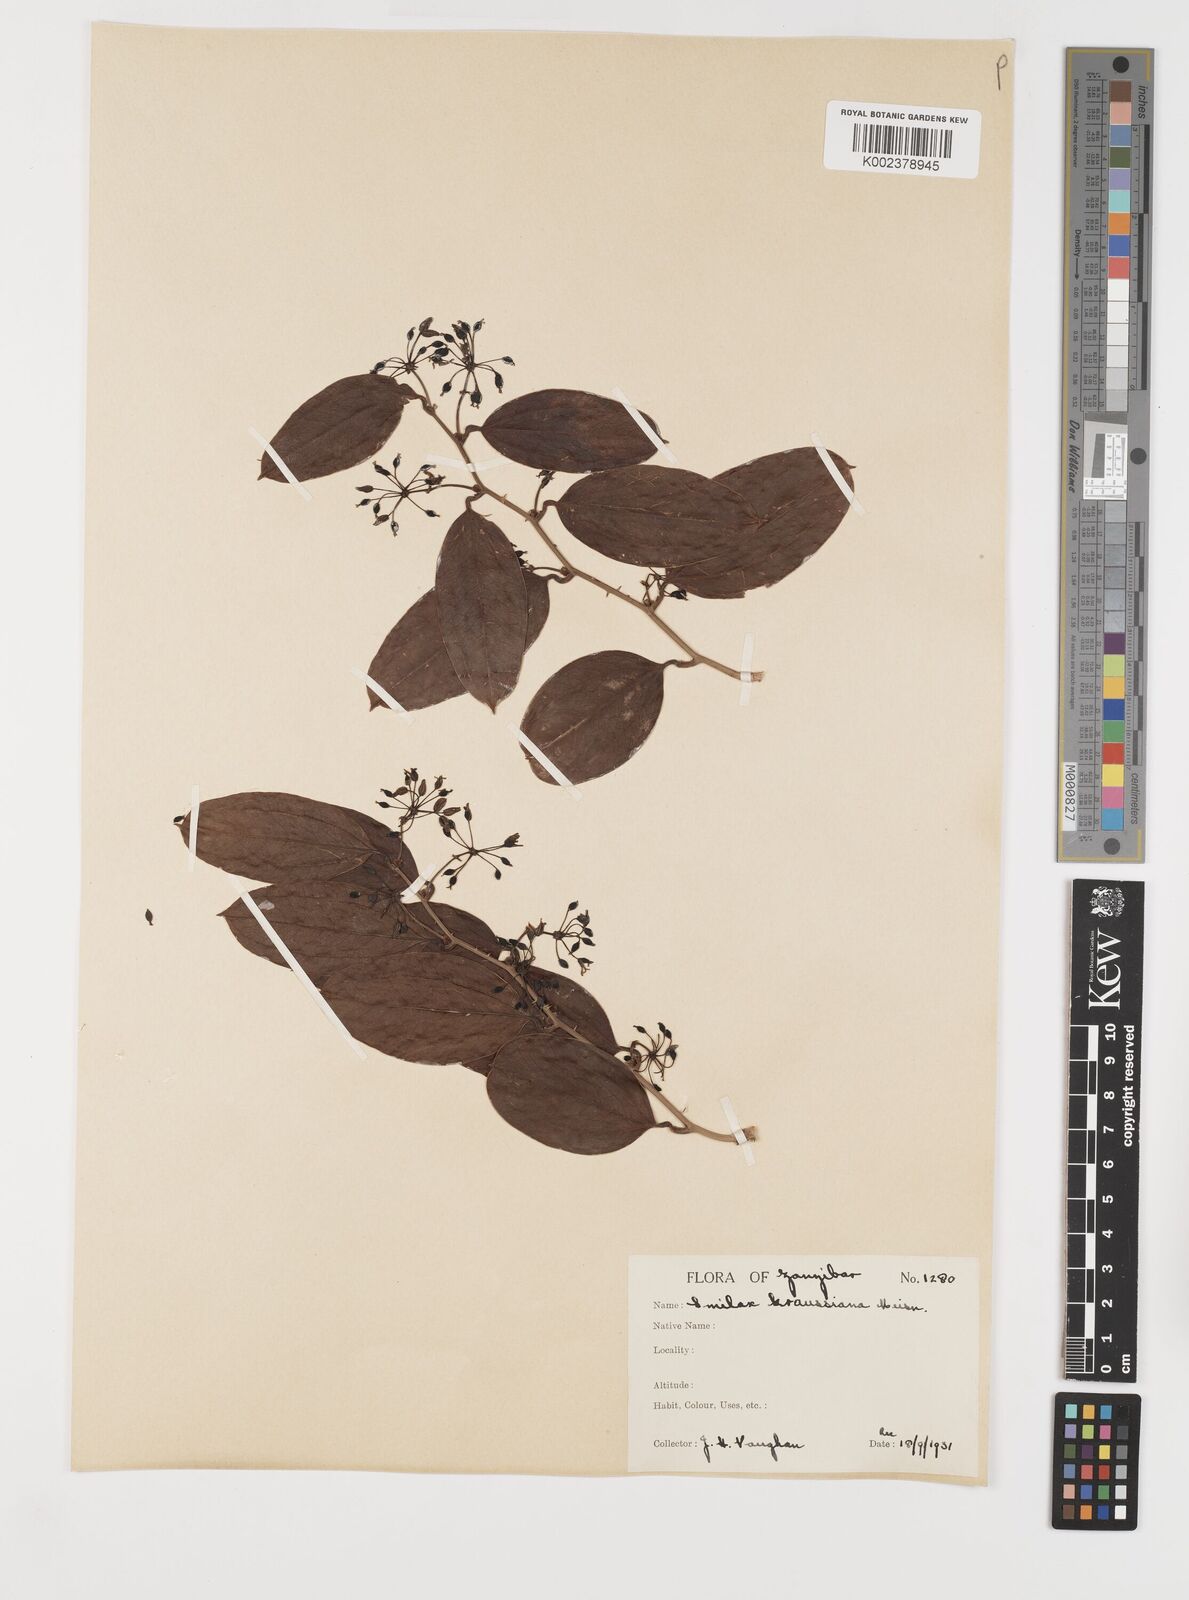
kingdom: Plantae
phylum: Tracheophyta
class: Liliopsida
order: Liliales
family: Smilacaceae
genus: Smilax
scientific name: Smilax anceps
